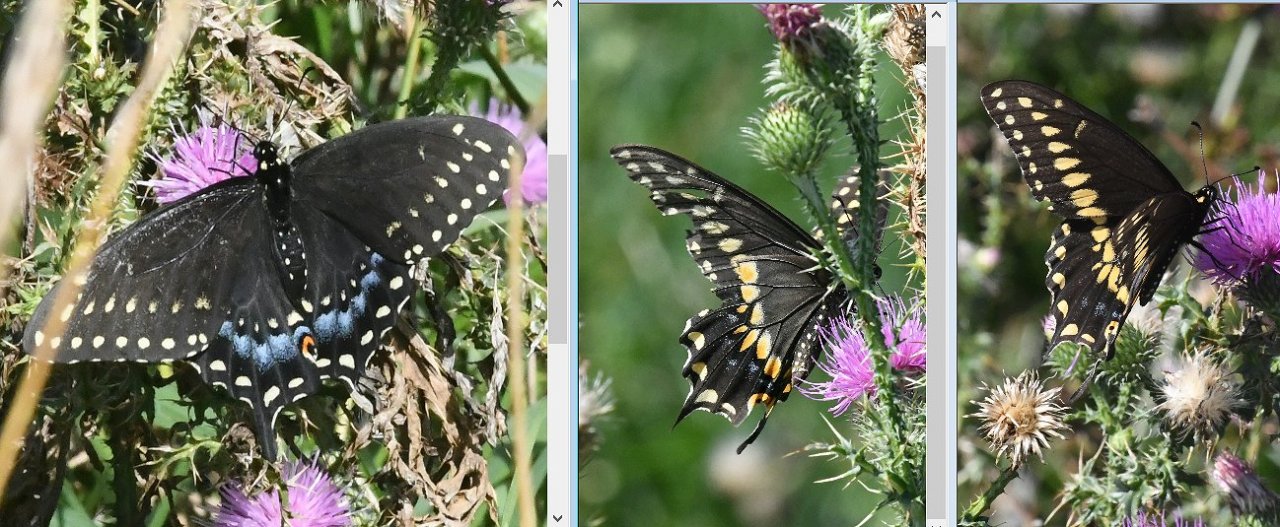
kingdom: Animalia
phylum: Arthropoda
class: Insecta
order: Lepidoptera
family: Papilionidae
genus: Papilio
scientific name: Papilio polyxenes
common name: Black Swallowtail
